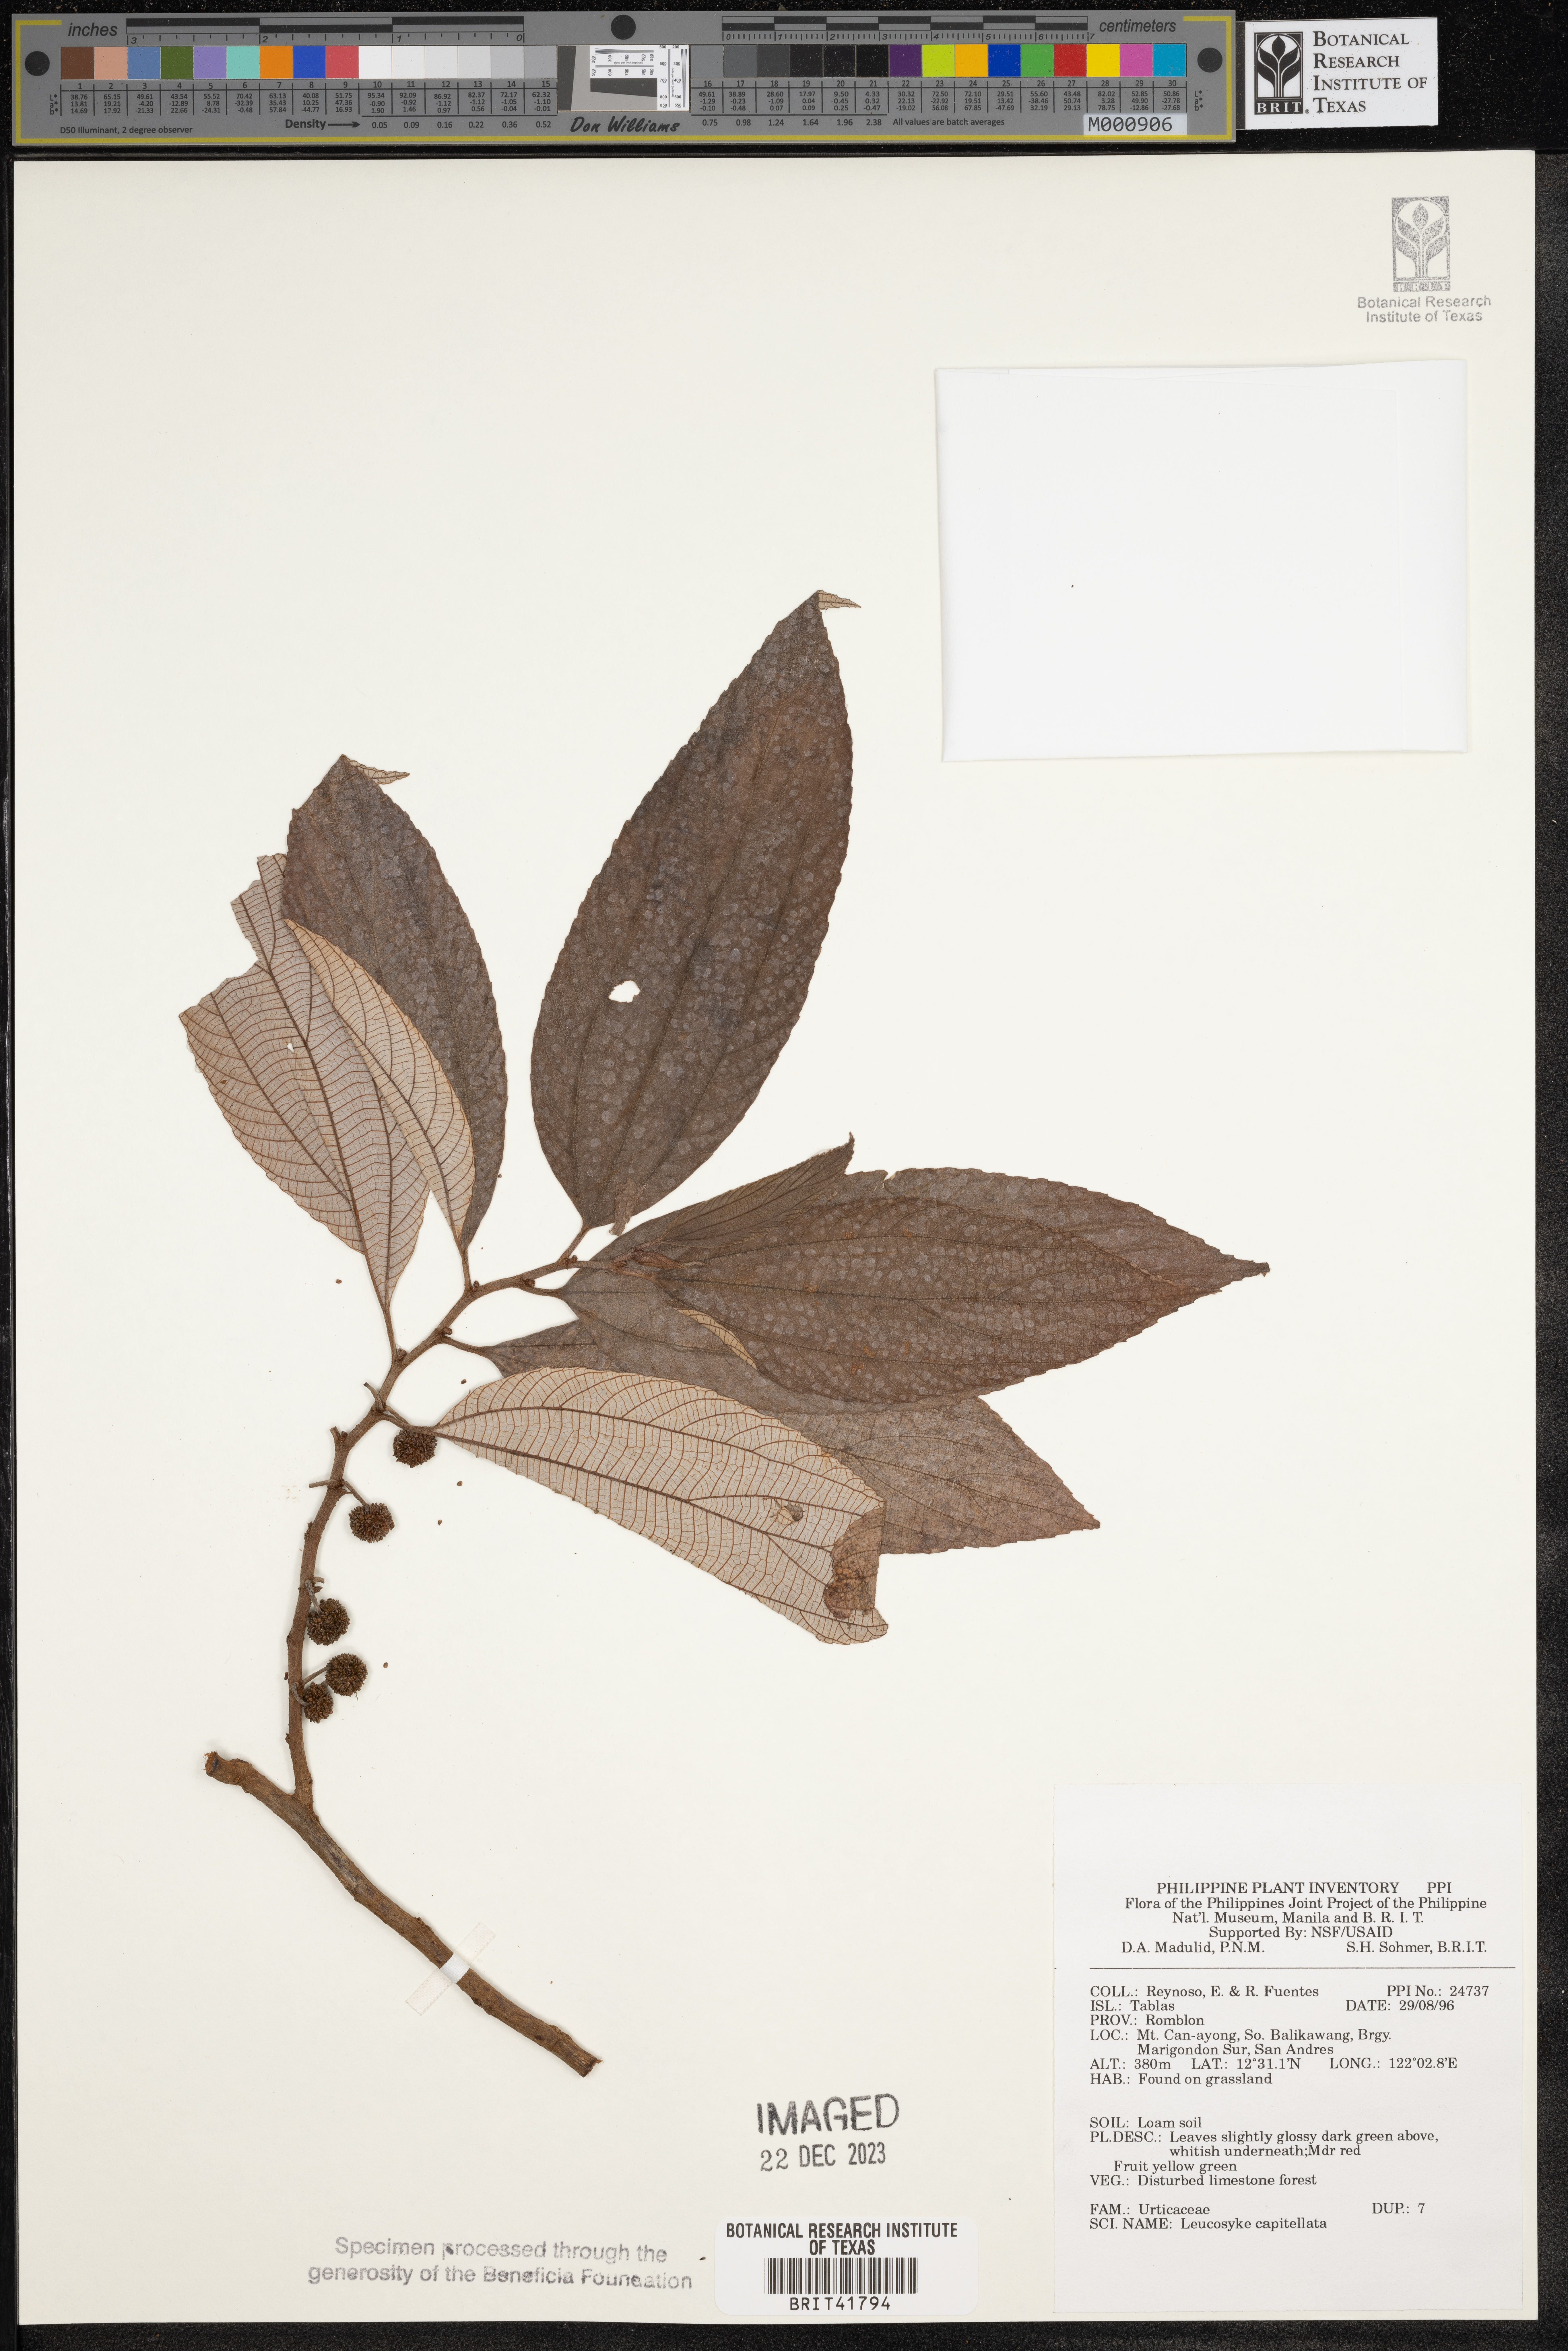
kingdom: Plantae
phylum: Tracheophyta
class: Magnoliopsida
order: Rosales
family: Urticaceae
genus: Leucosyke
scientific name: Leucosyke capitellata
